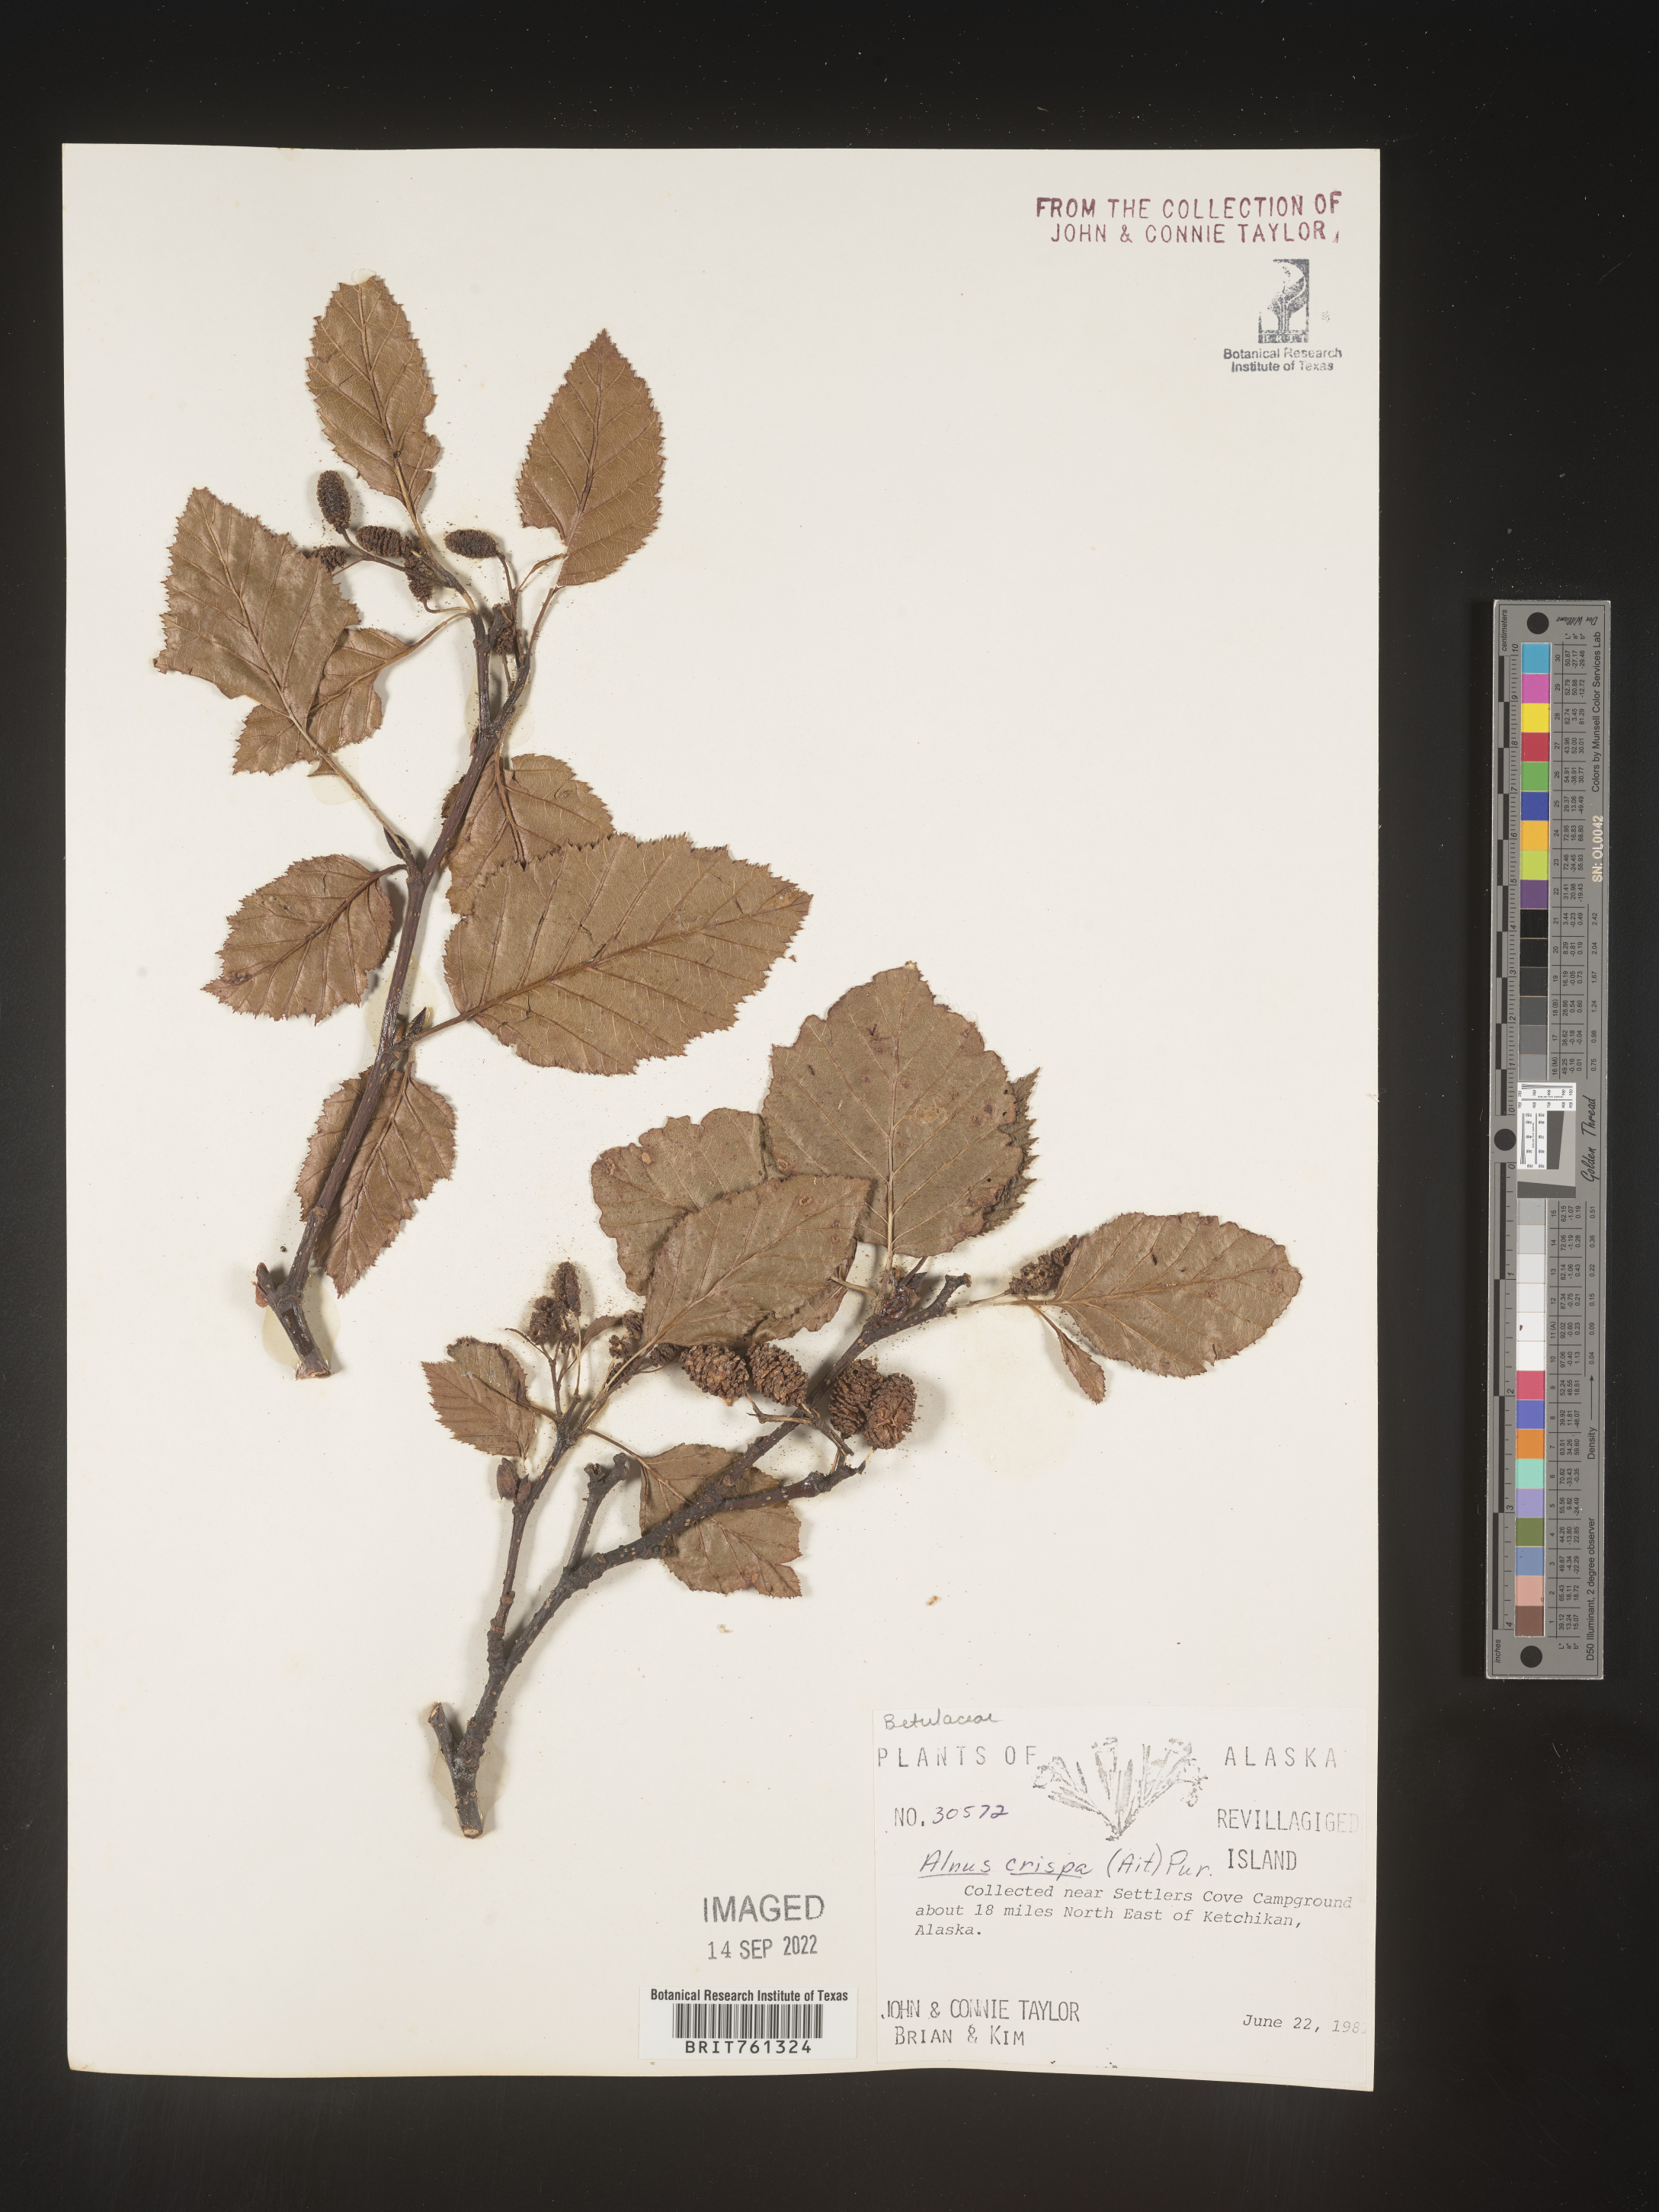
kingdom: Plantae
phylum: Tracheophyta
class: Magnoliopsida
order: Fagales
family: Betulaceae
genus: Alnus
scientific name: Alnus
